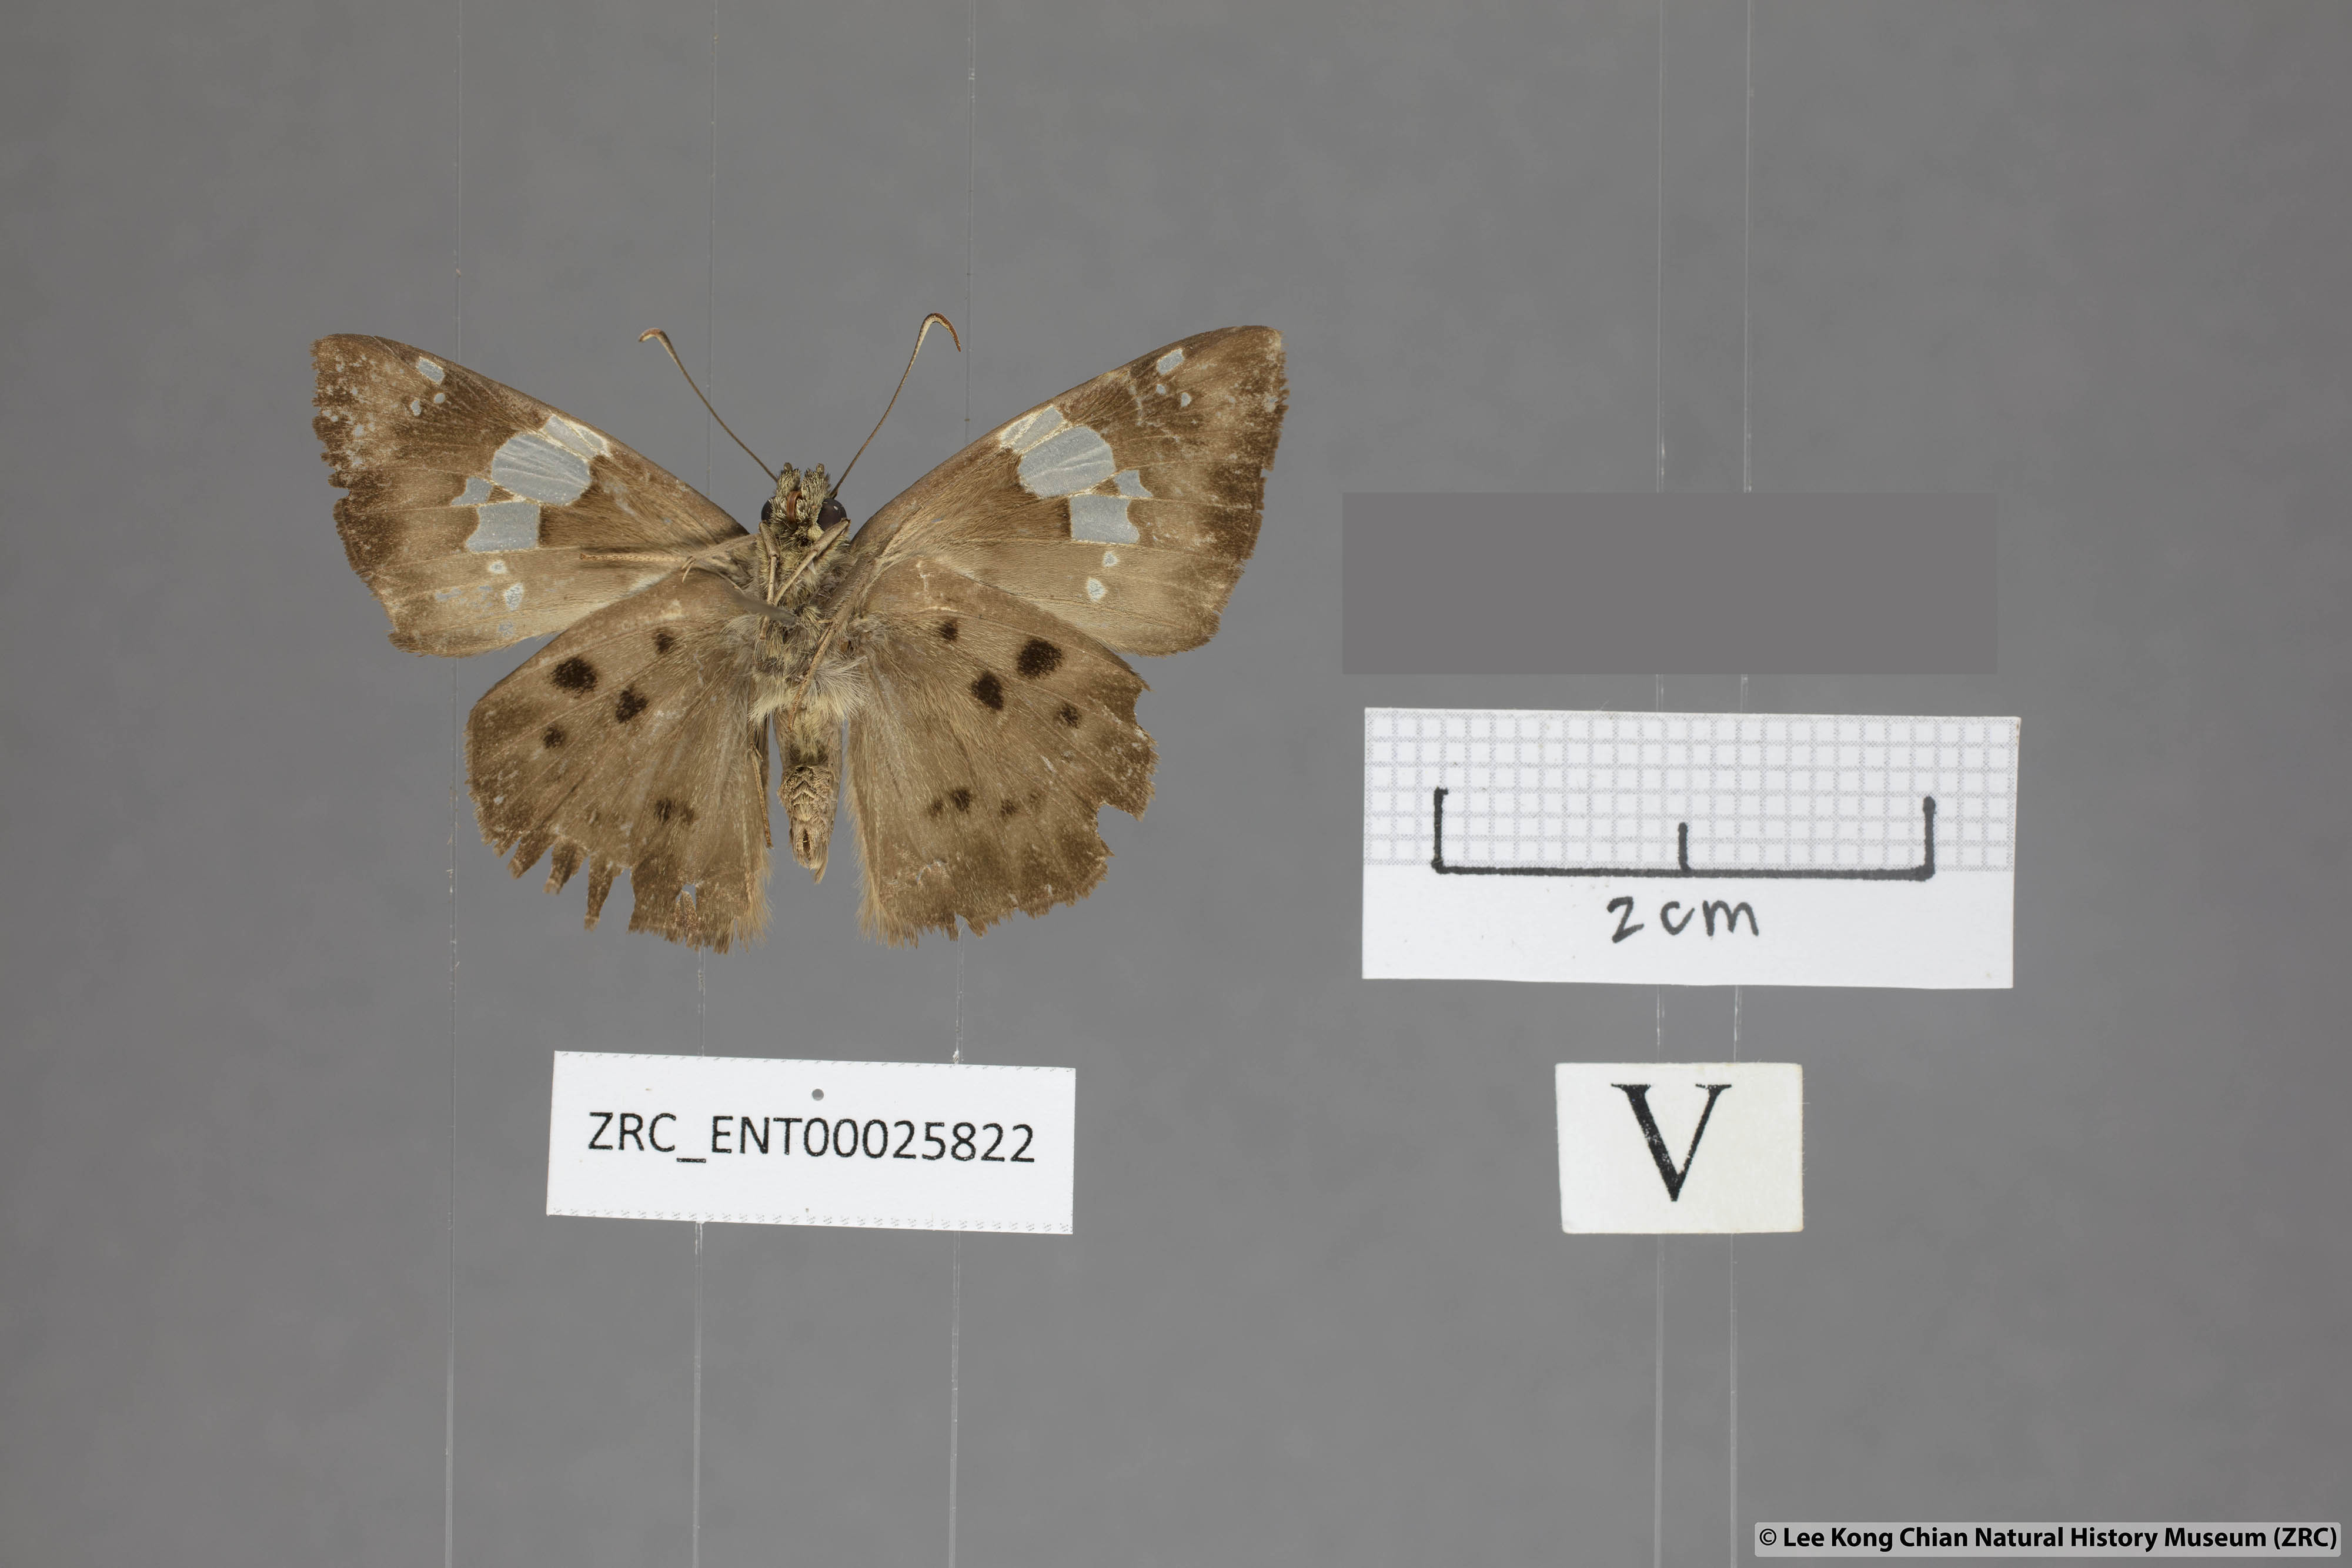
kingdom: Animalia
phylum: Arthropoda
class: Insecta
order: Lepidoptera
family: Hesperiidae
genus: Coladenia
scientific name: Coladenia laxmi
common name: Gray pied flat
